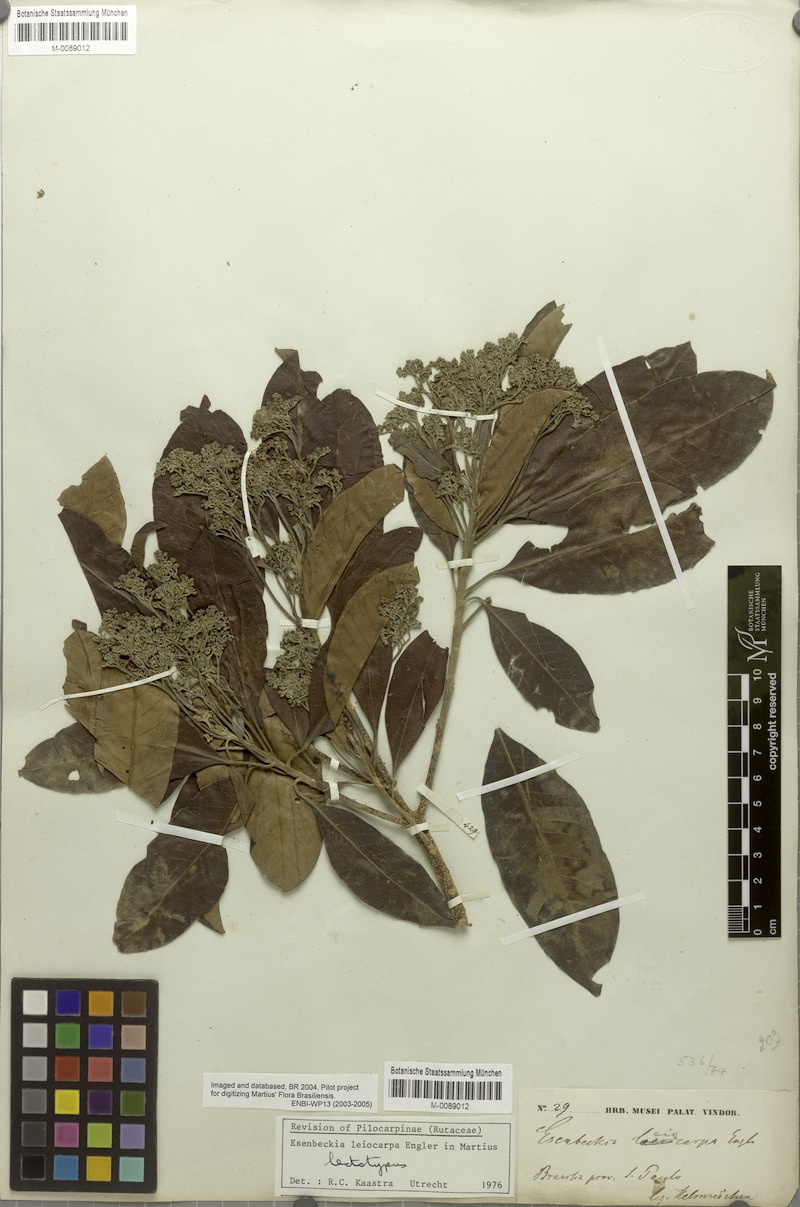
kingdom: Plantae
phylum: Tracheophyta
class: Magnoliopsida
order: Sapindales
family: Rutaceae
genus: Esenbeckia
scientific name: Esenbeckia leiocarpa
